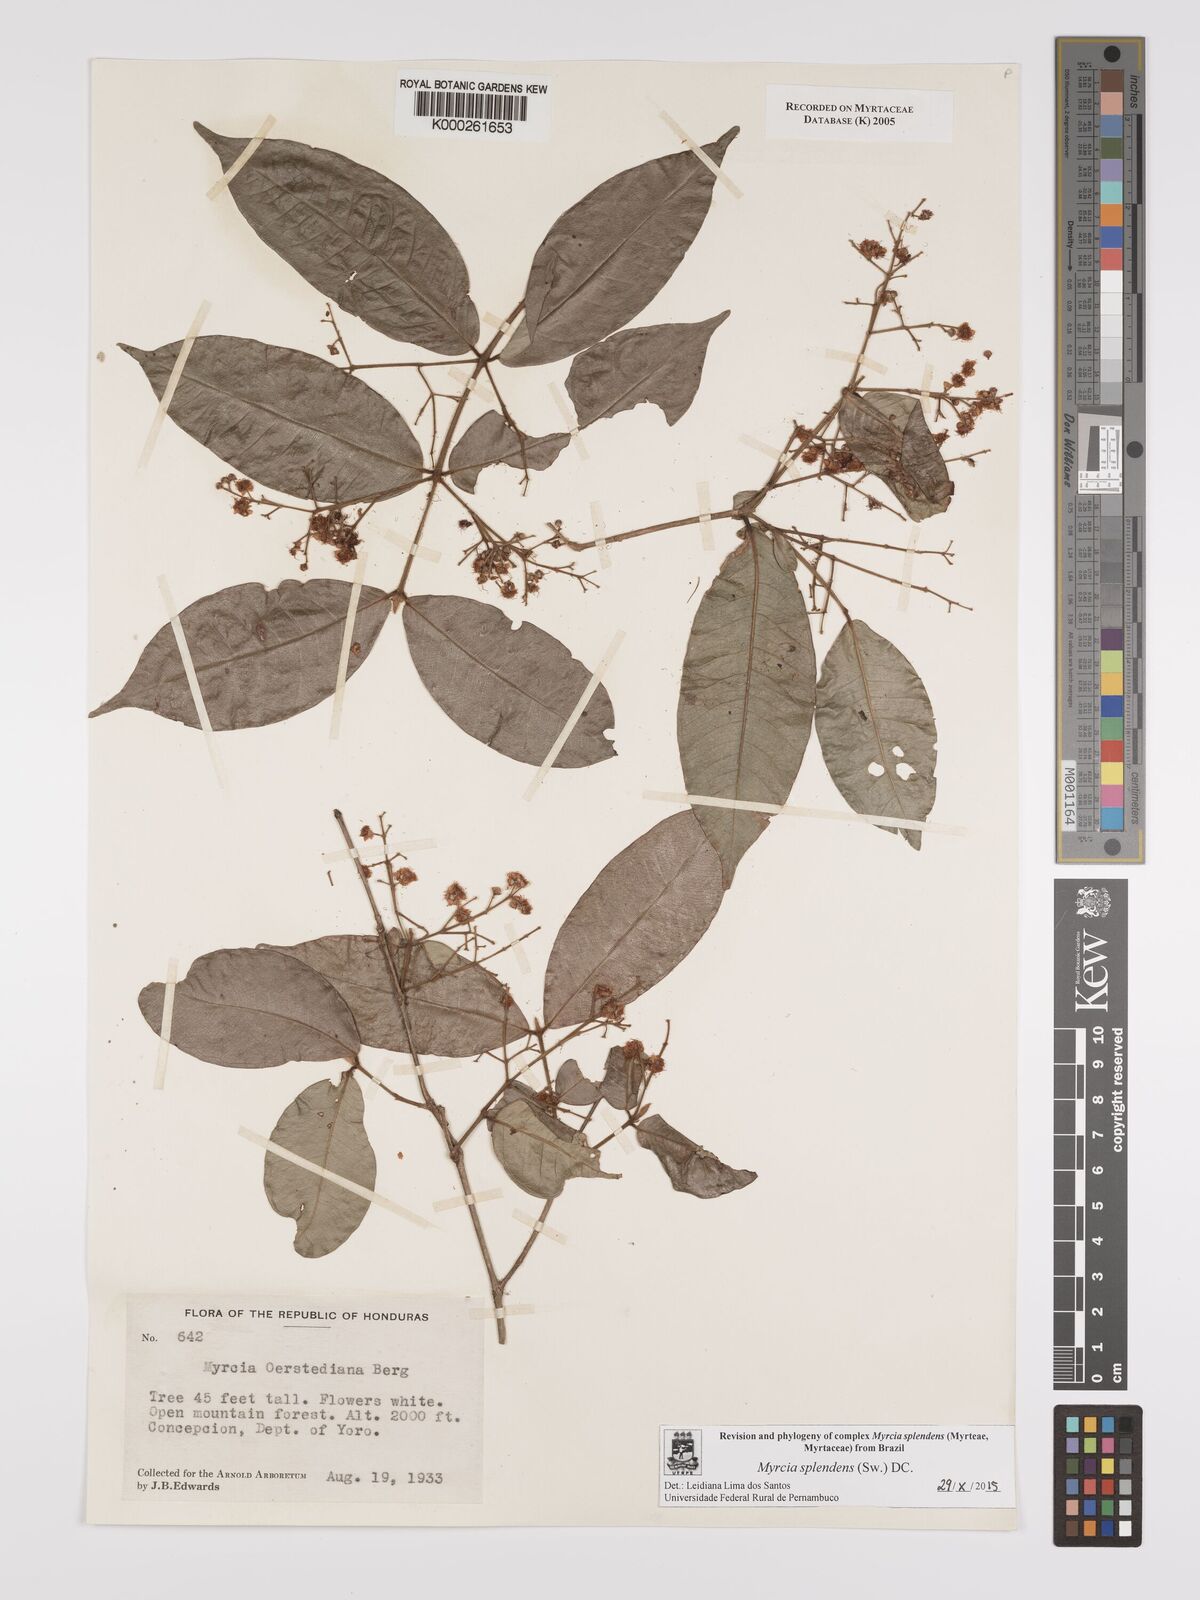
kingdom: Plantae
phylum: Tracheophyta
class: Magnoliopsida
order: Myrtales
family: Myrtaceae
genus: Myrcia
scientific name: Myrcia splendens
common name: Surinam cherry
